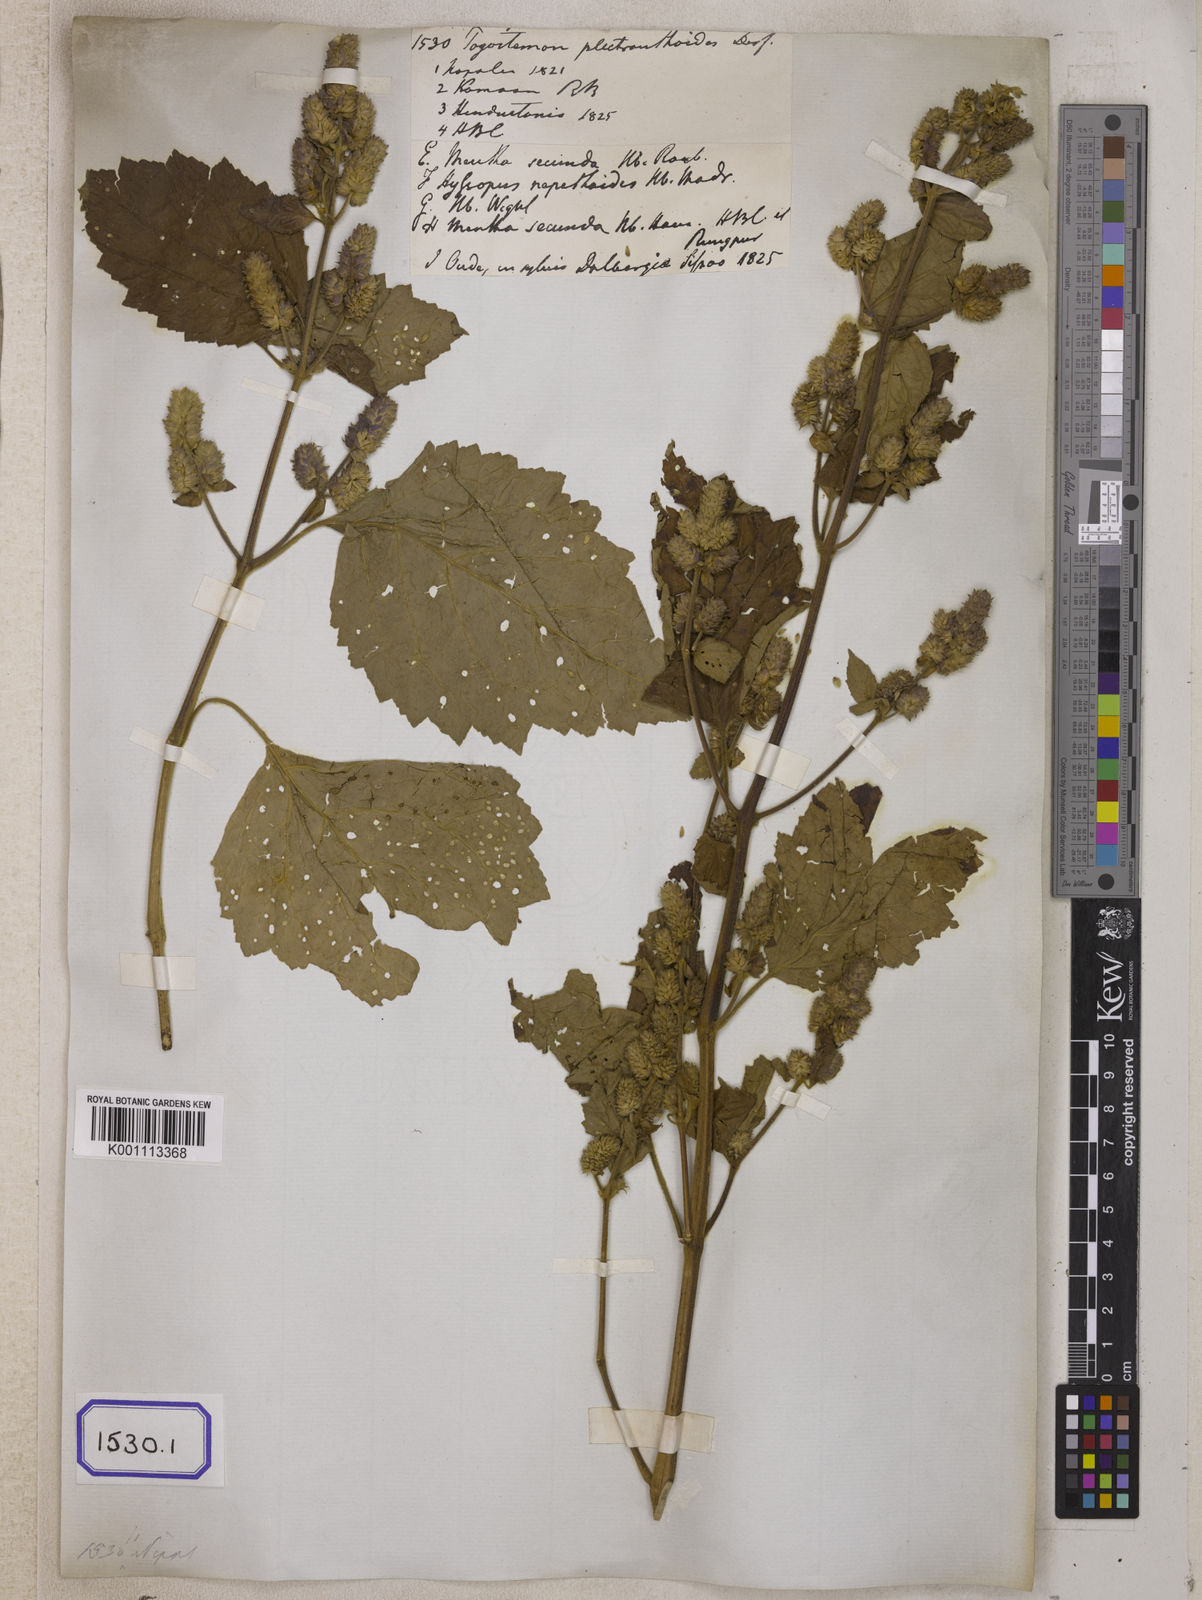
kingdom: Plantae
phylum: Tracheophyta
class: Magnoliopsida
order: Lamiales
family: Lamiaceae
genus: Pogostemon
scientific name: Pogostemon
